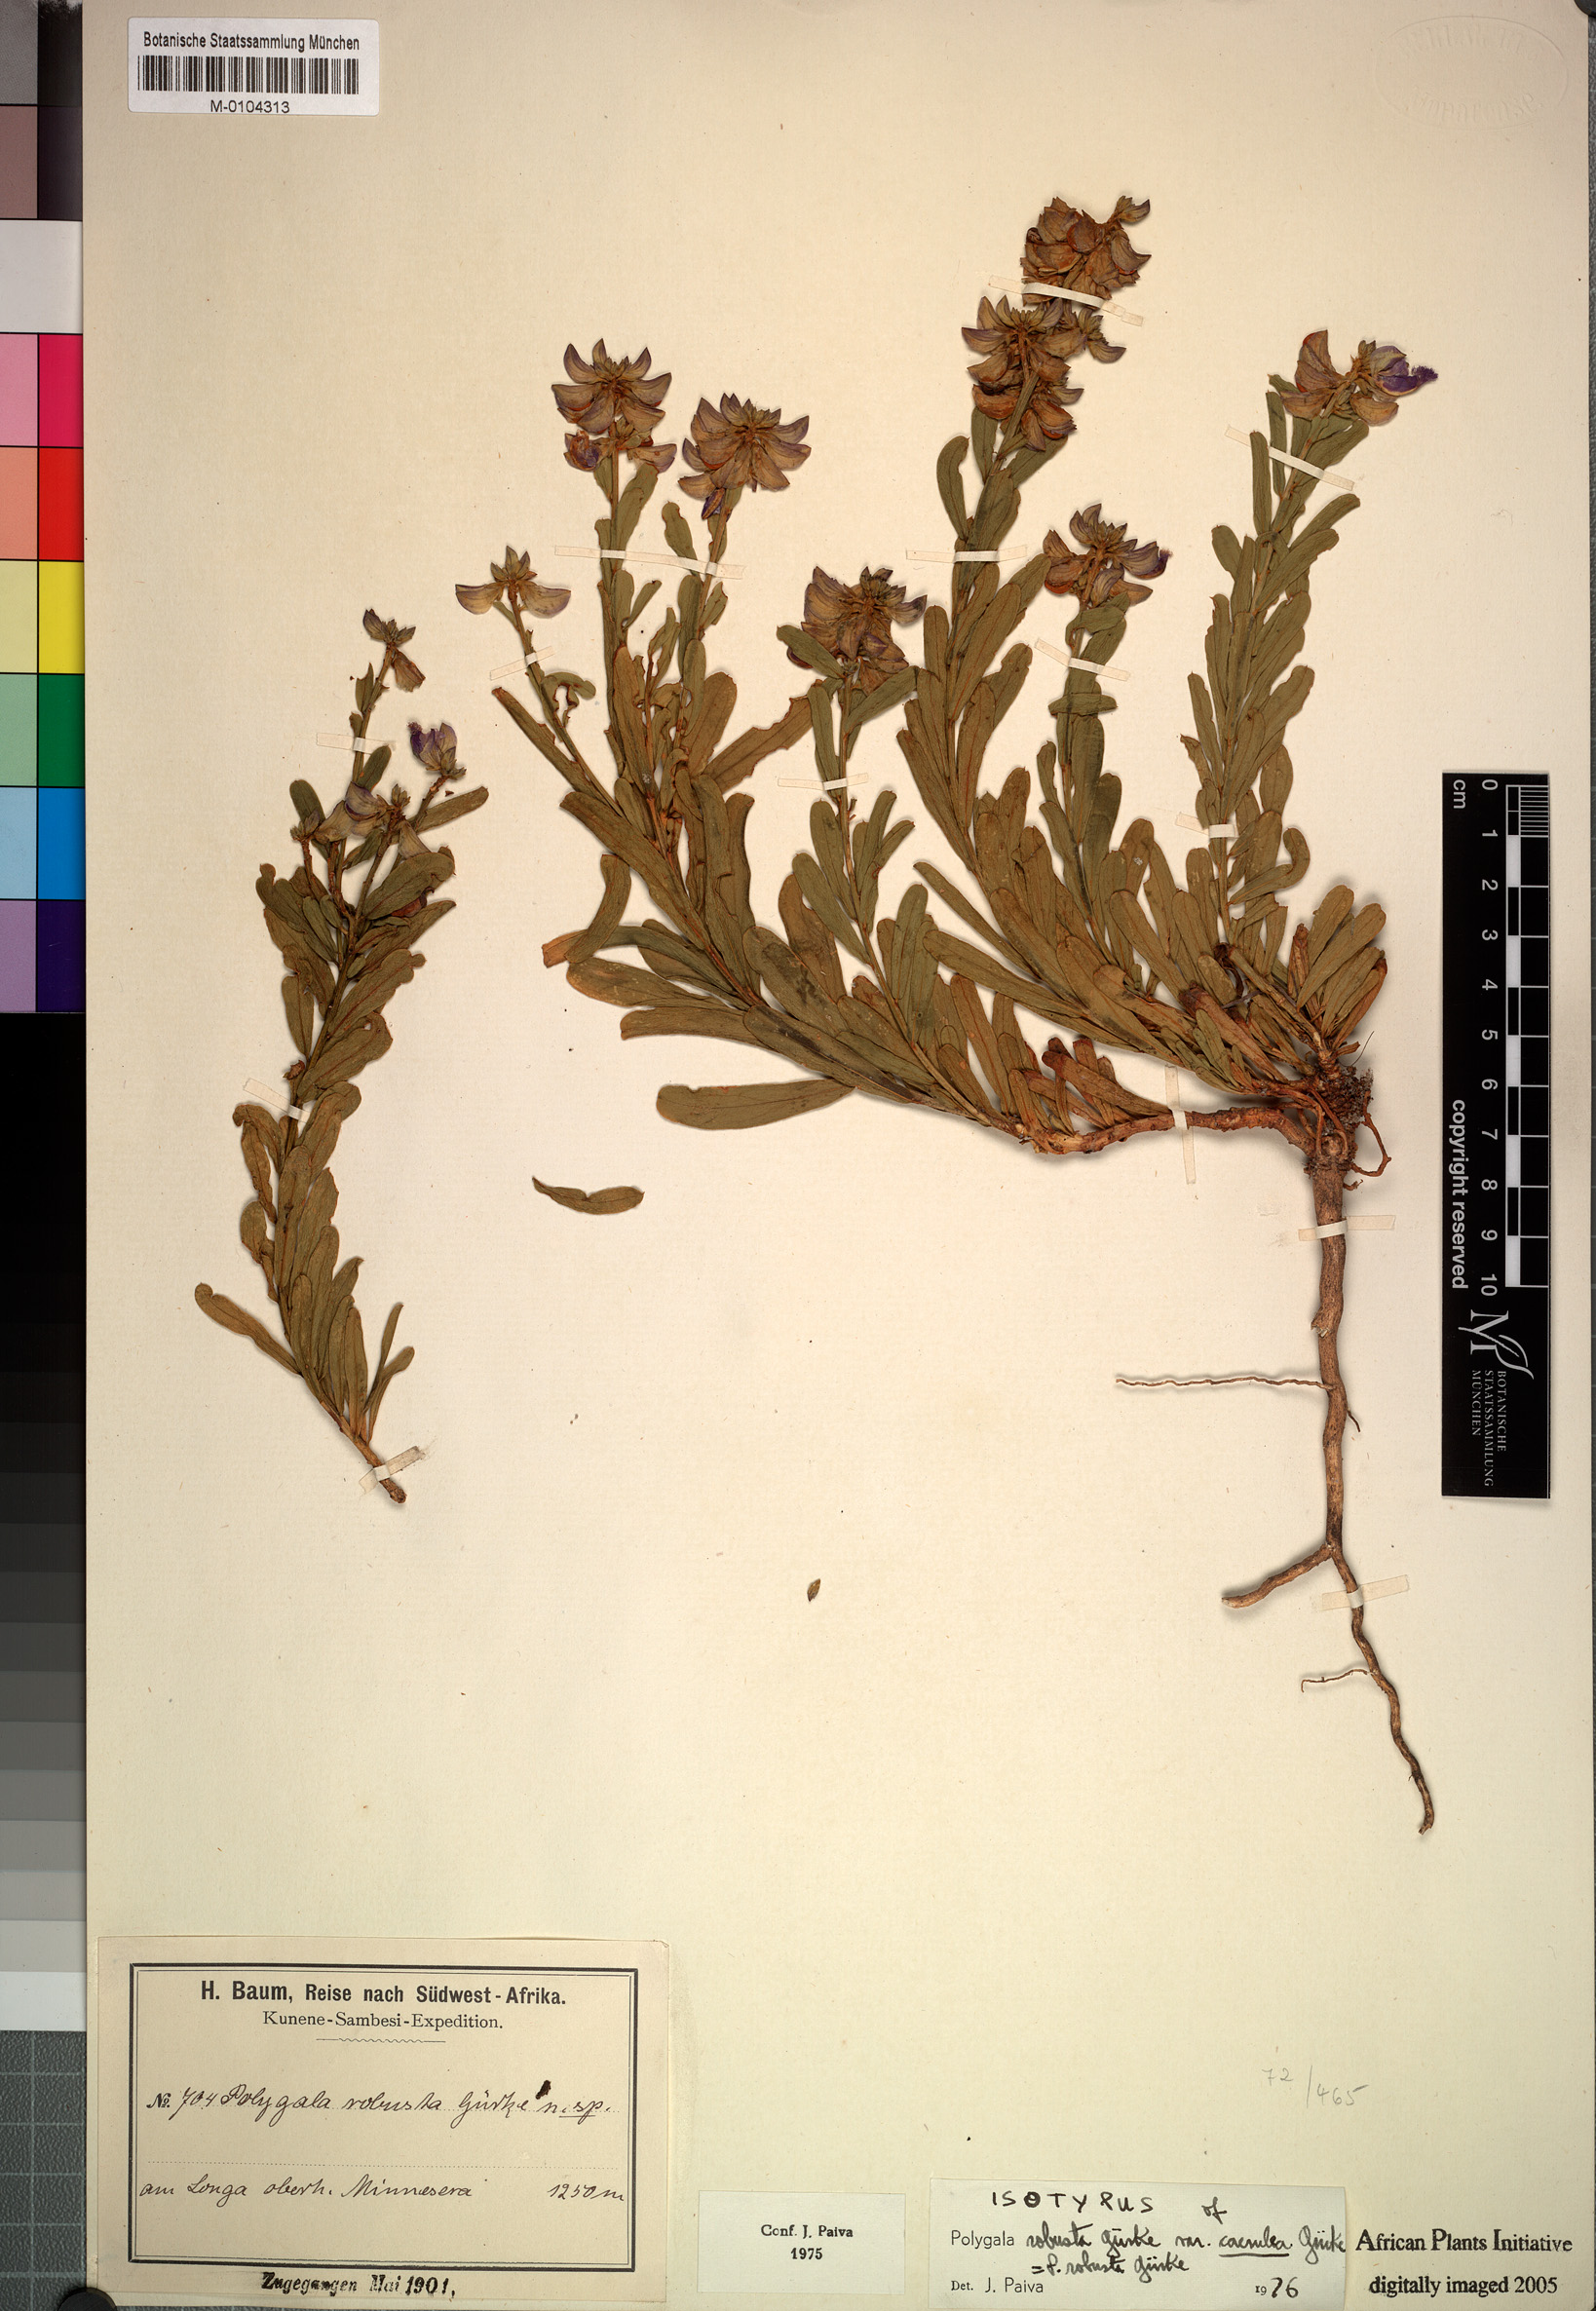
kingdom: Plantae
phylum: Tracheophyta
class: Magnoliopsida
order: Fabales
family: Polygalaceae
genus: Polygala
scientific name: Polygala robusta
